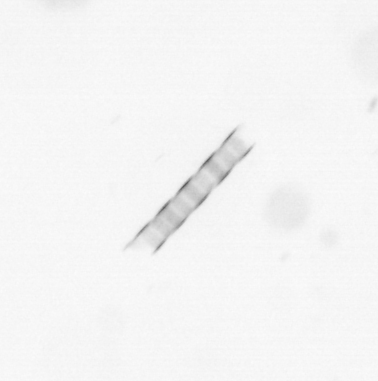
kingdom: Chromista
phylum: Ochrophyta
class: Bacillariophyceae
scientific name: Bacillariophyceae
